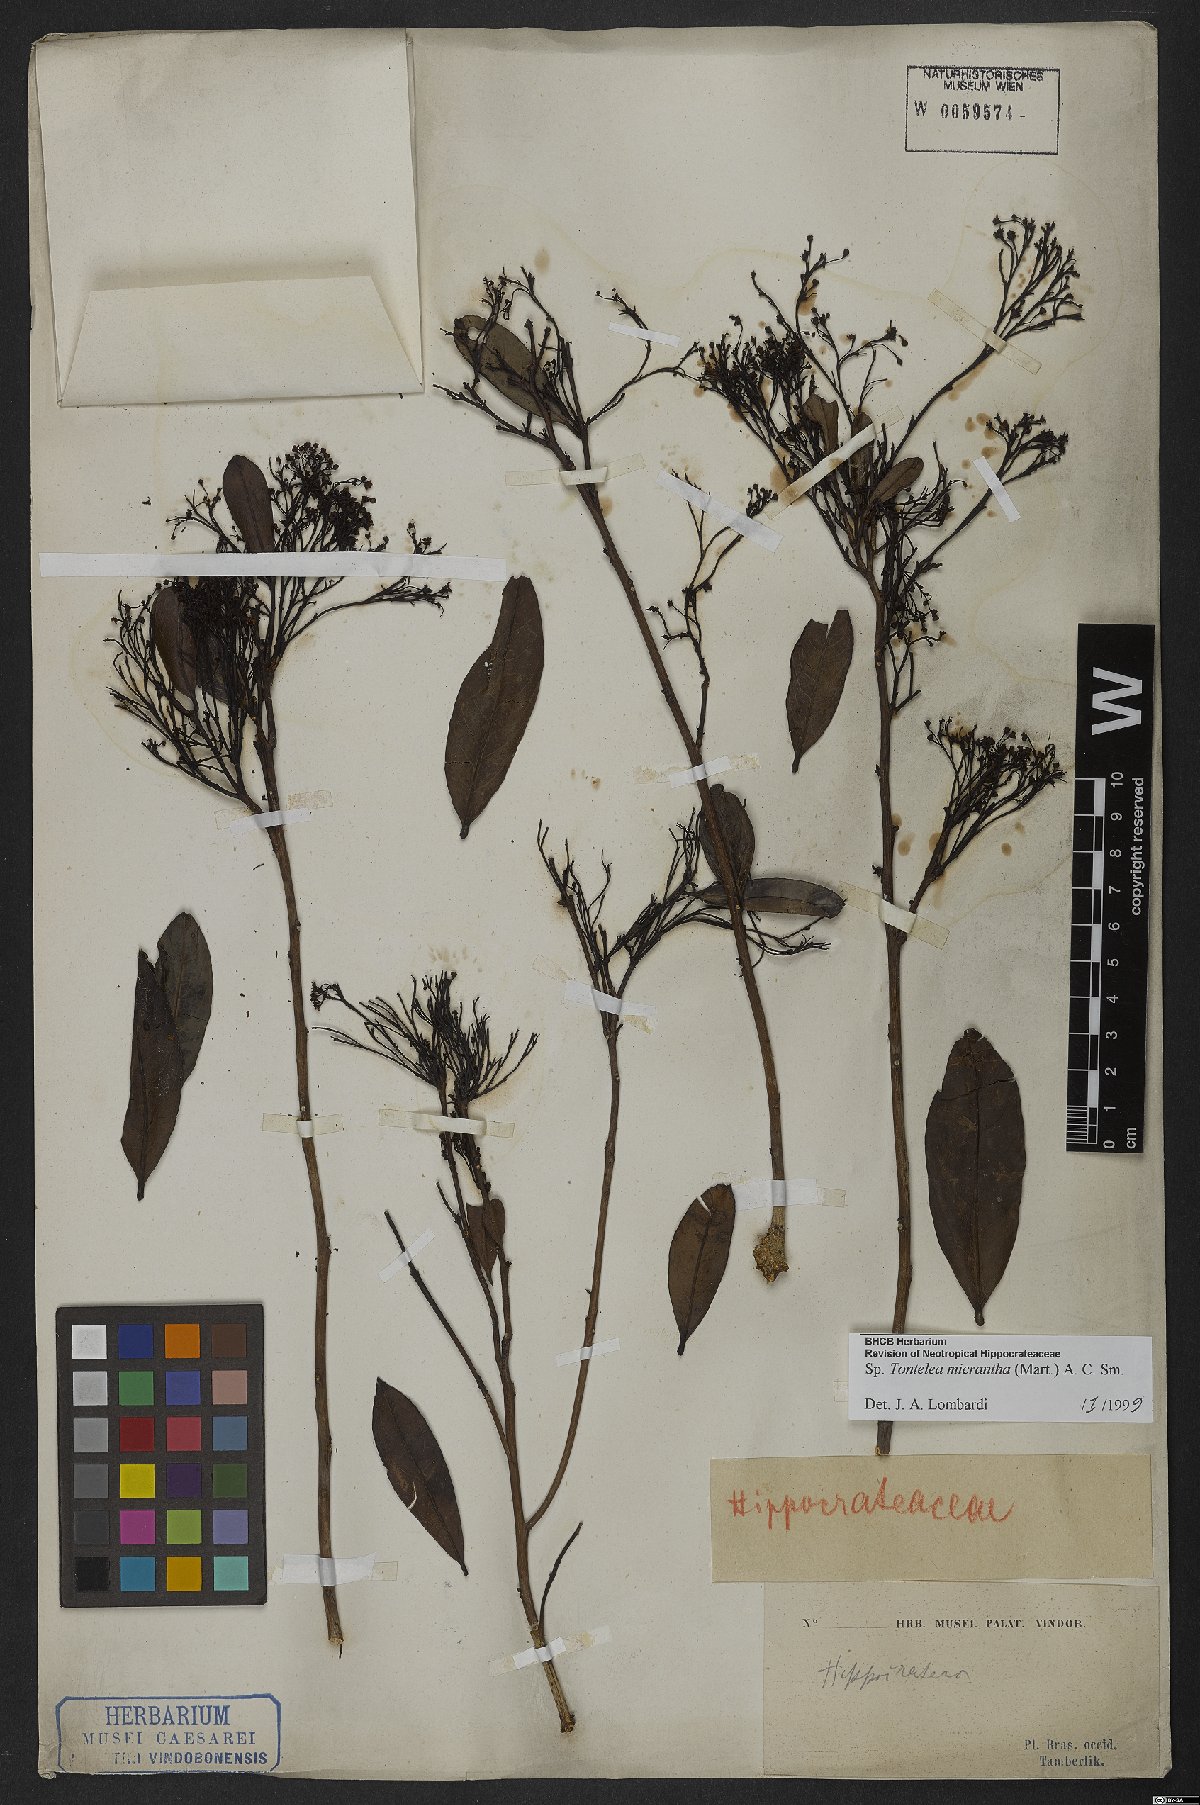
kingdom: Plantae
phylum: Tracheophyta
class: Magnoliopsida
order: Celastrales
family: Celastraceae
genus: Tontelea
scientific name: Tontelea micrantha
